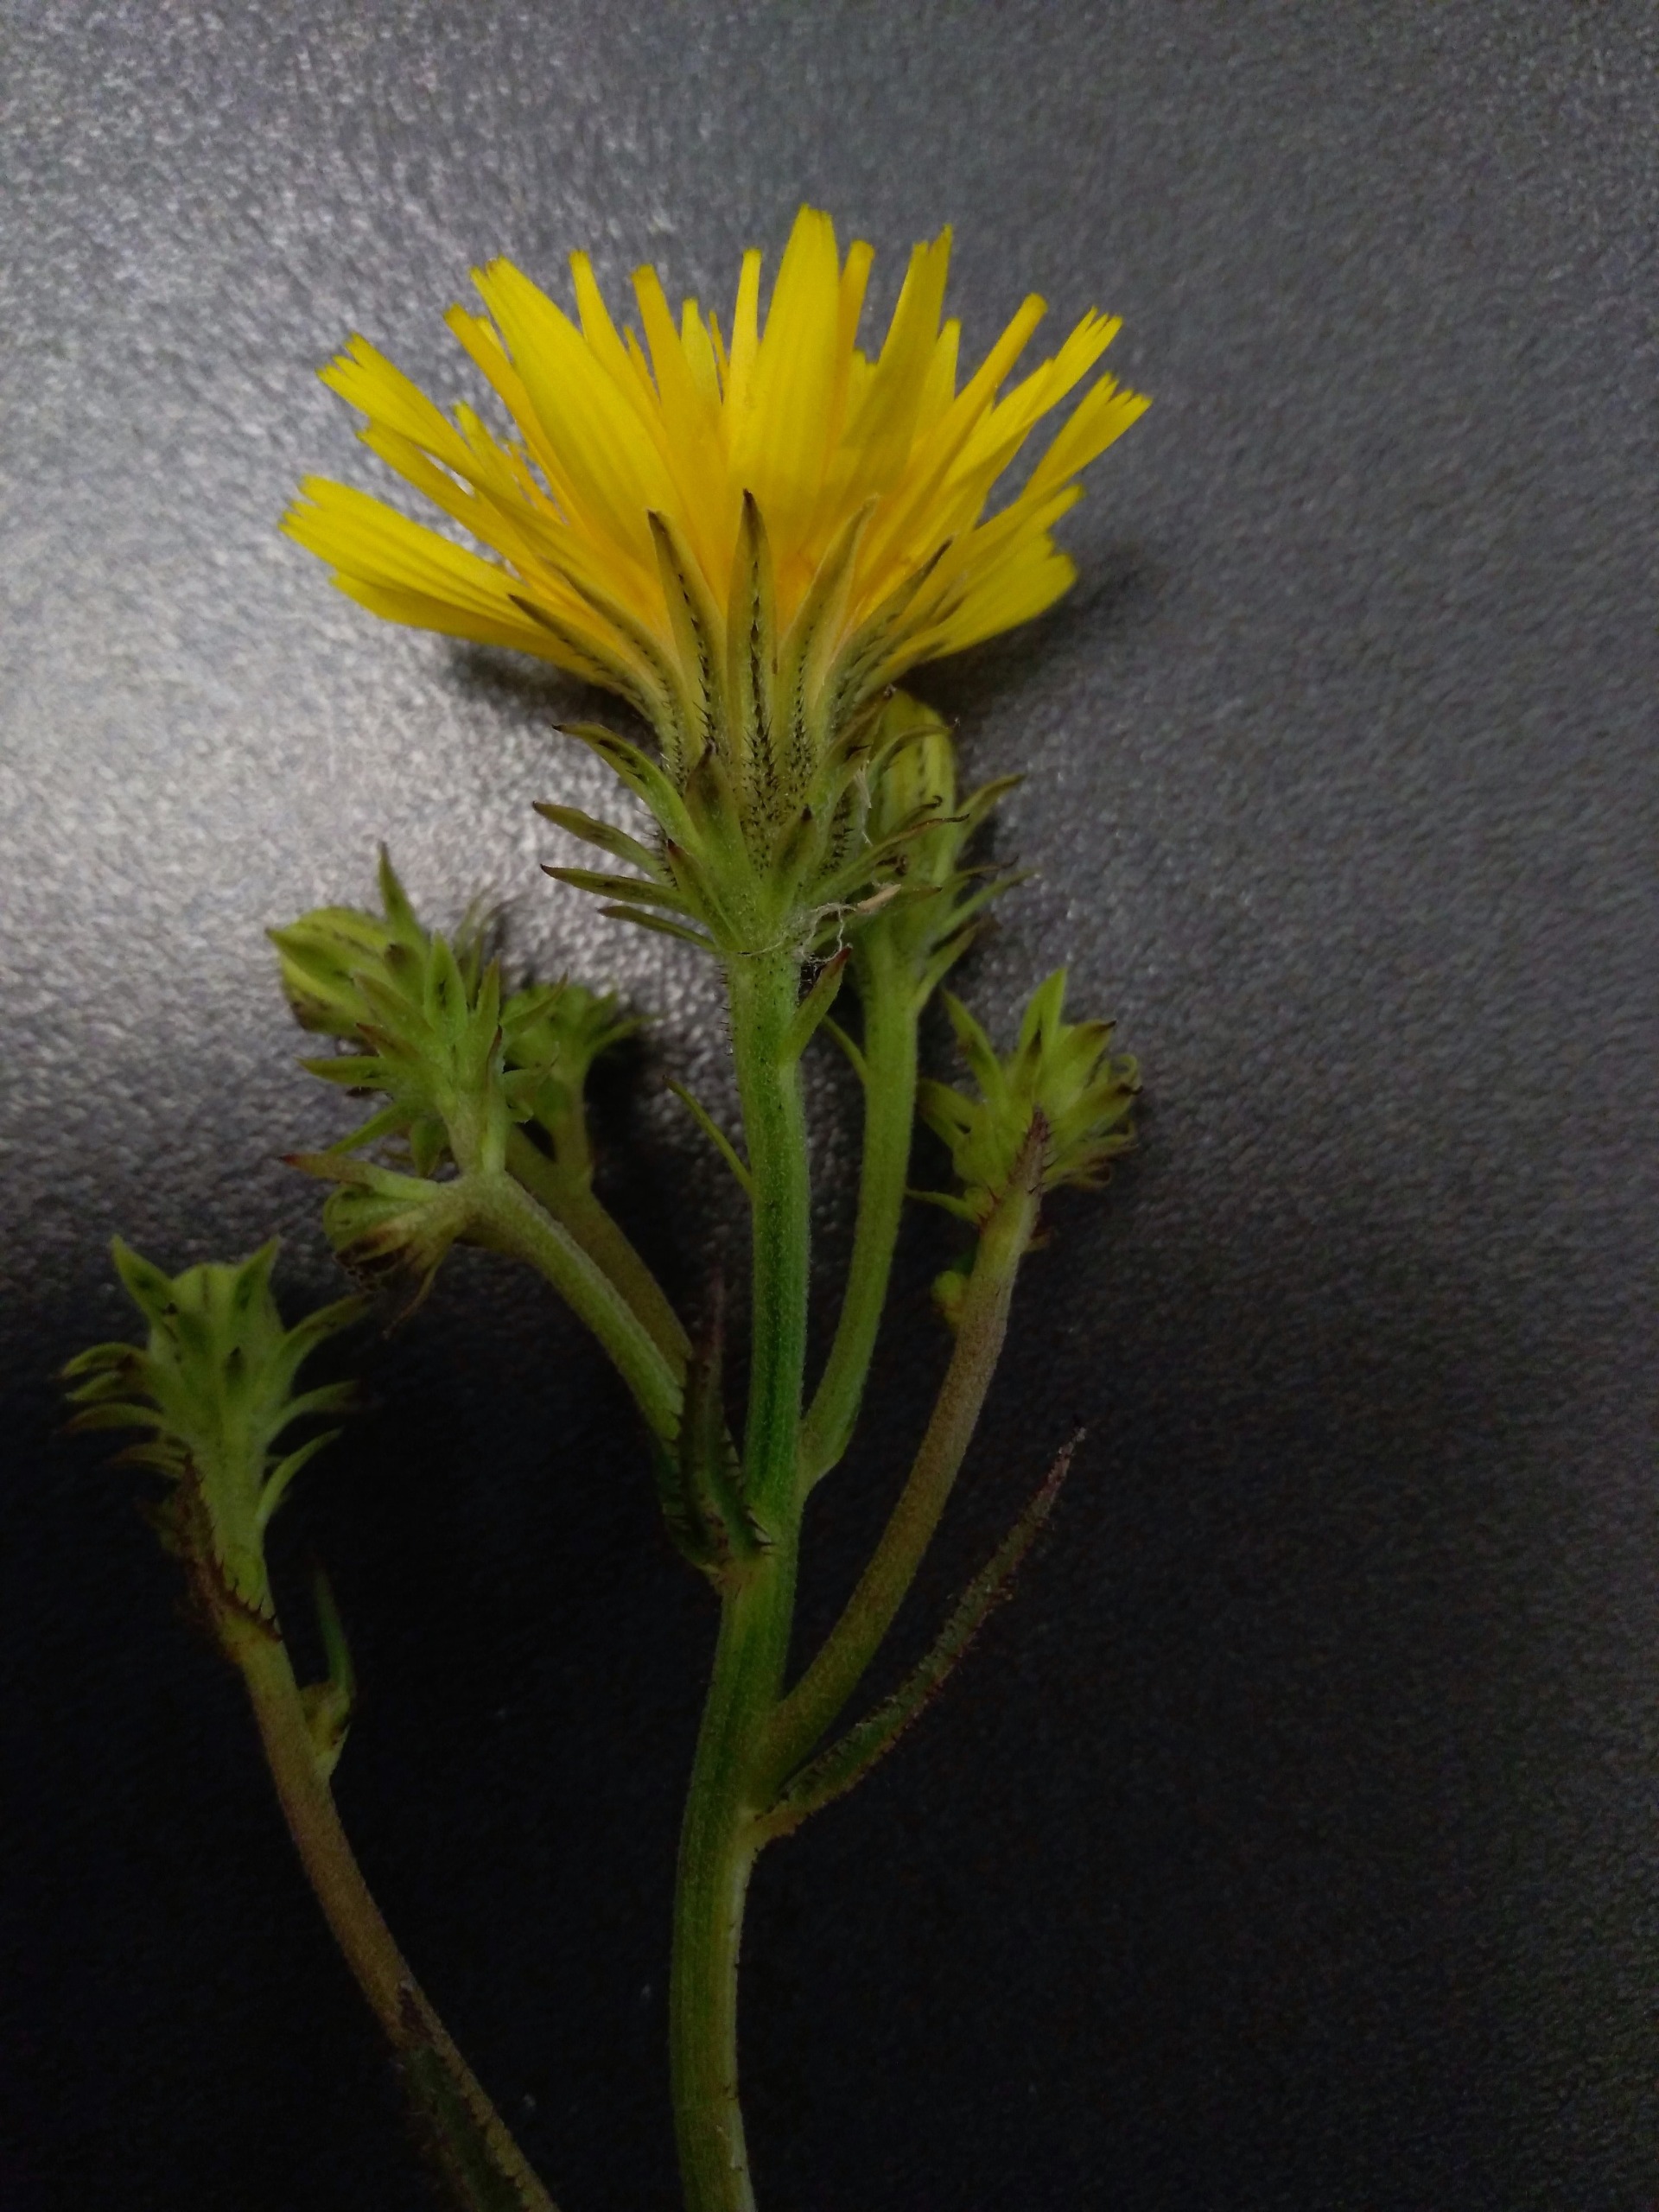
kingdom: Plantae
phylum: Tracheophyta
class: Magnoliopsida
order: Asterales
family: Asteraceae
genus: Picris
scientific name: Picris hieracioides
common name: Ru bittermælk
